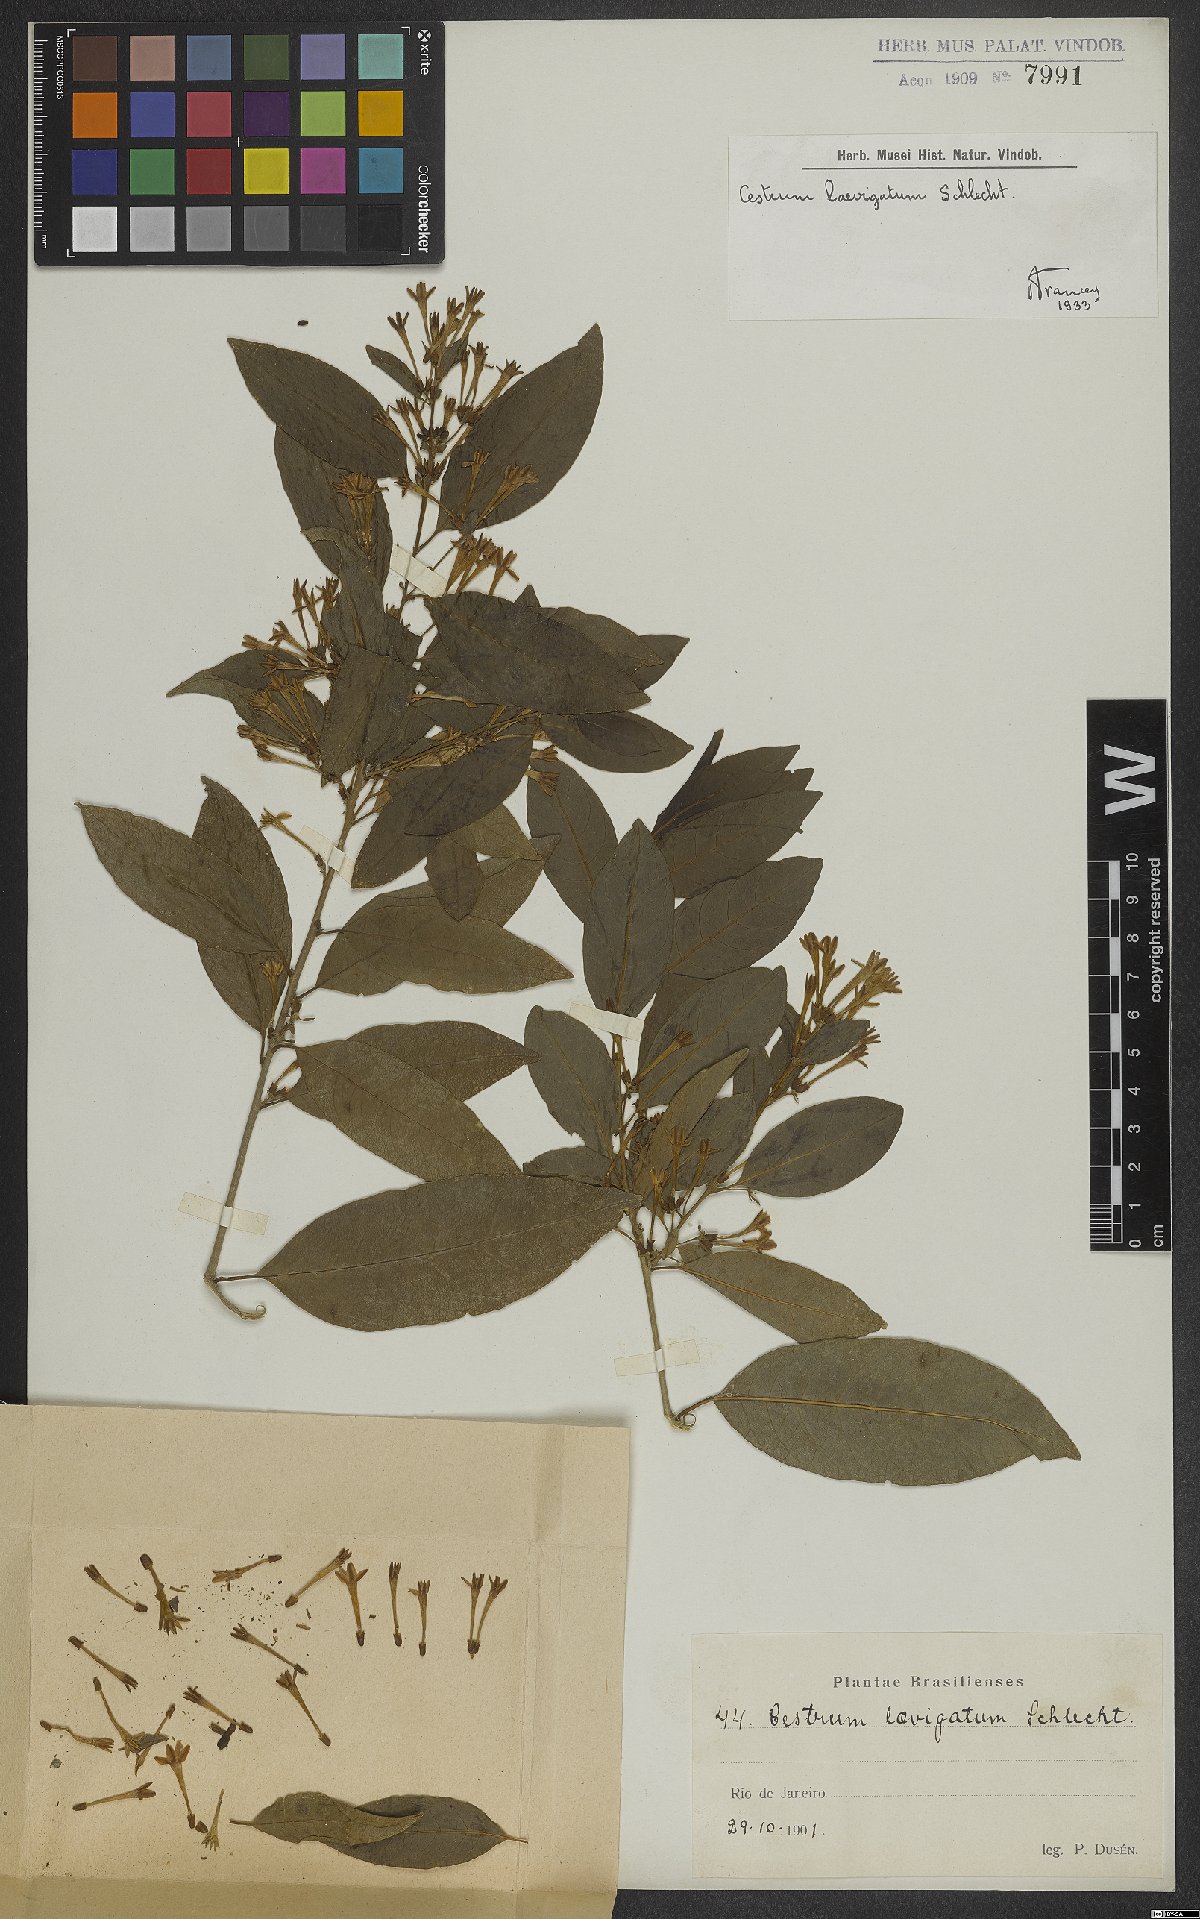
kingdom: Plantae
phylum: Tracheophyta
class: Magnoliopsida
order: Solanales
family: Solanaceae
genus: Cestrum
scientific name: Cestrum laevigatum
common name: Inkberry
